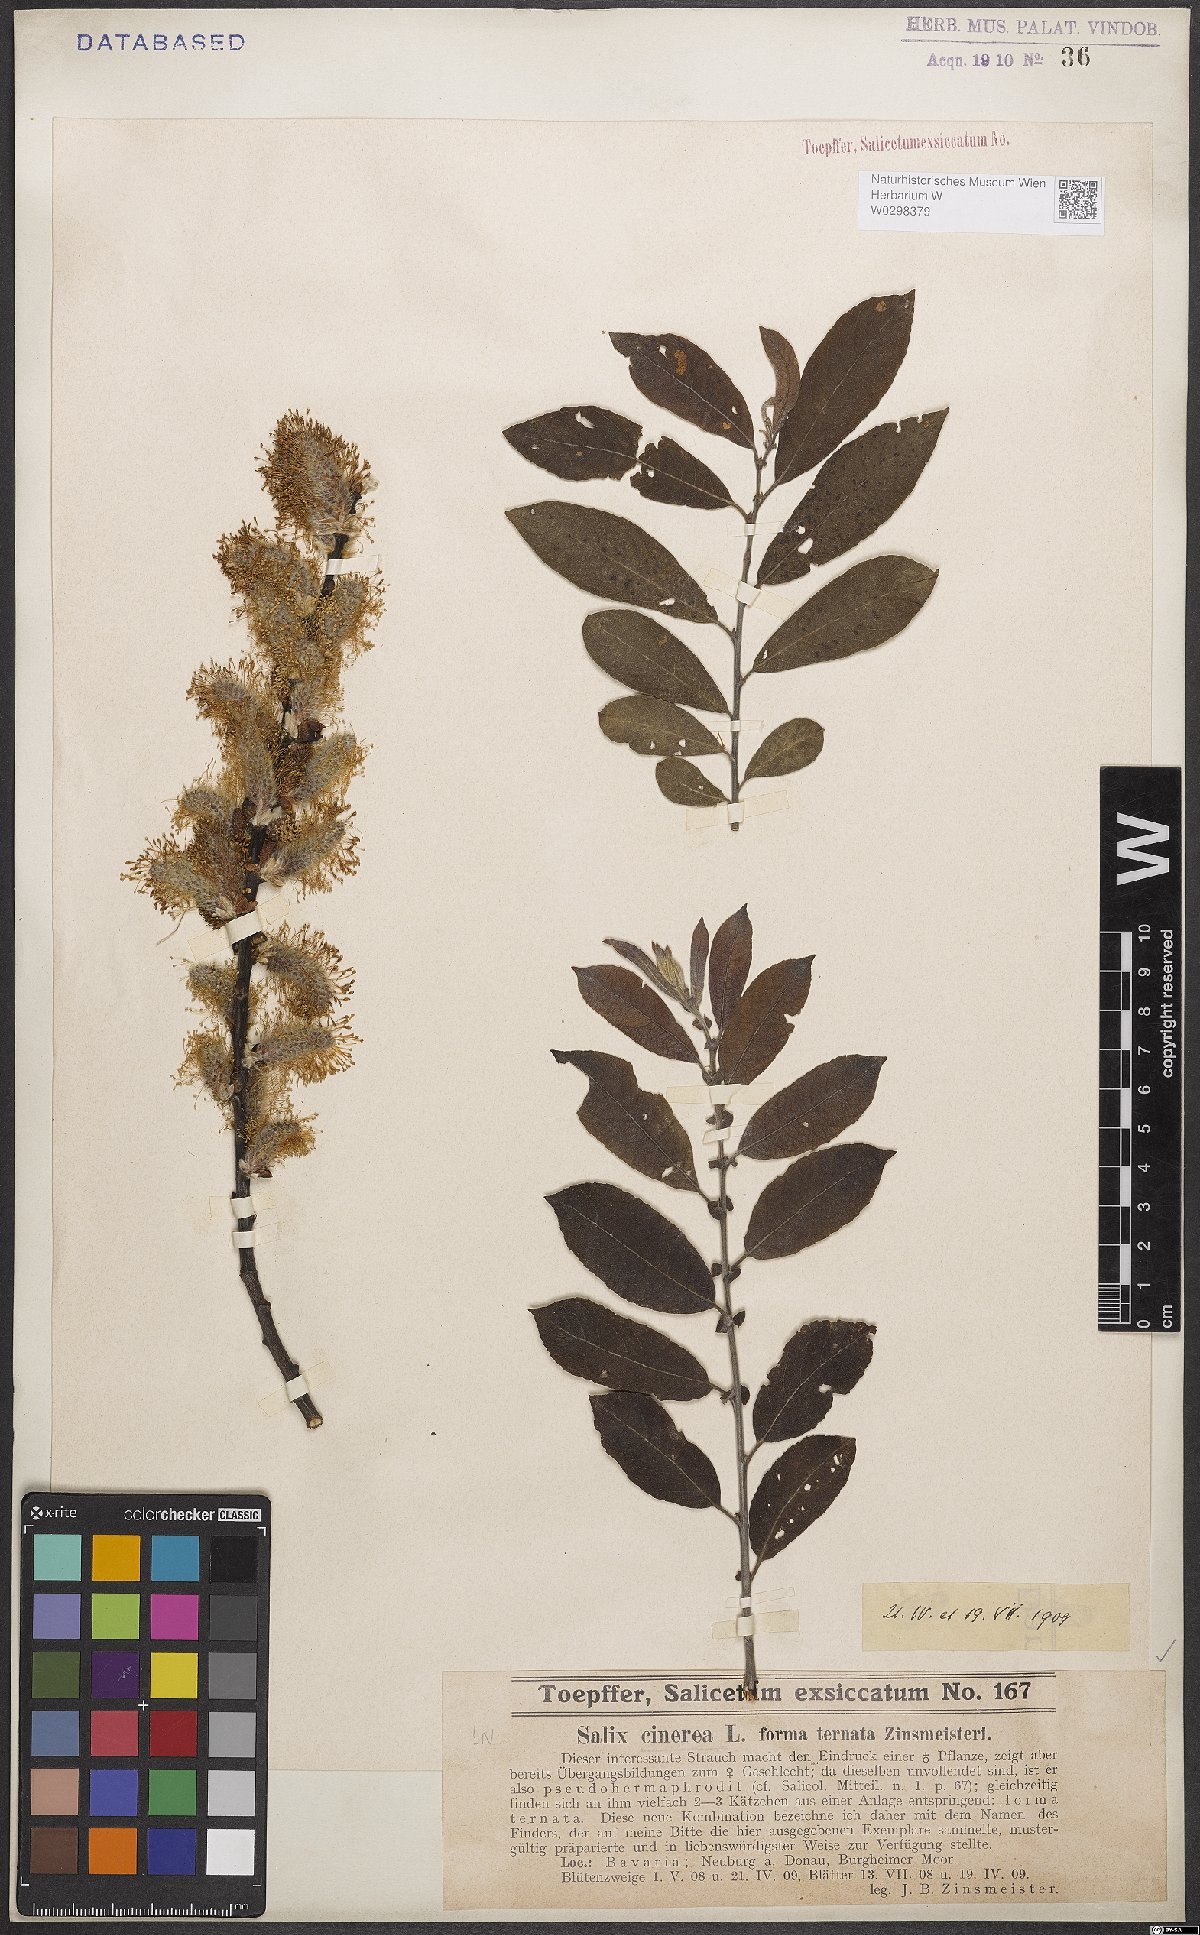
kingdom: Plantae
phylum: Tracheophyta
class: Magnoliopsida
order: Malpighiales
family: Salicaceae
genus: Salix
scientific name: Salix cinerea
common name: Common sallow
